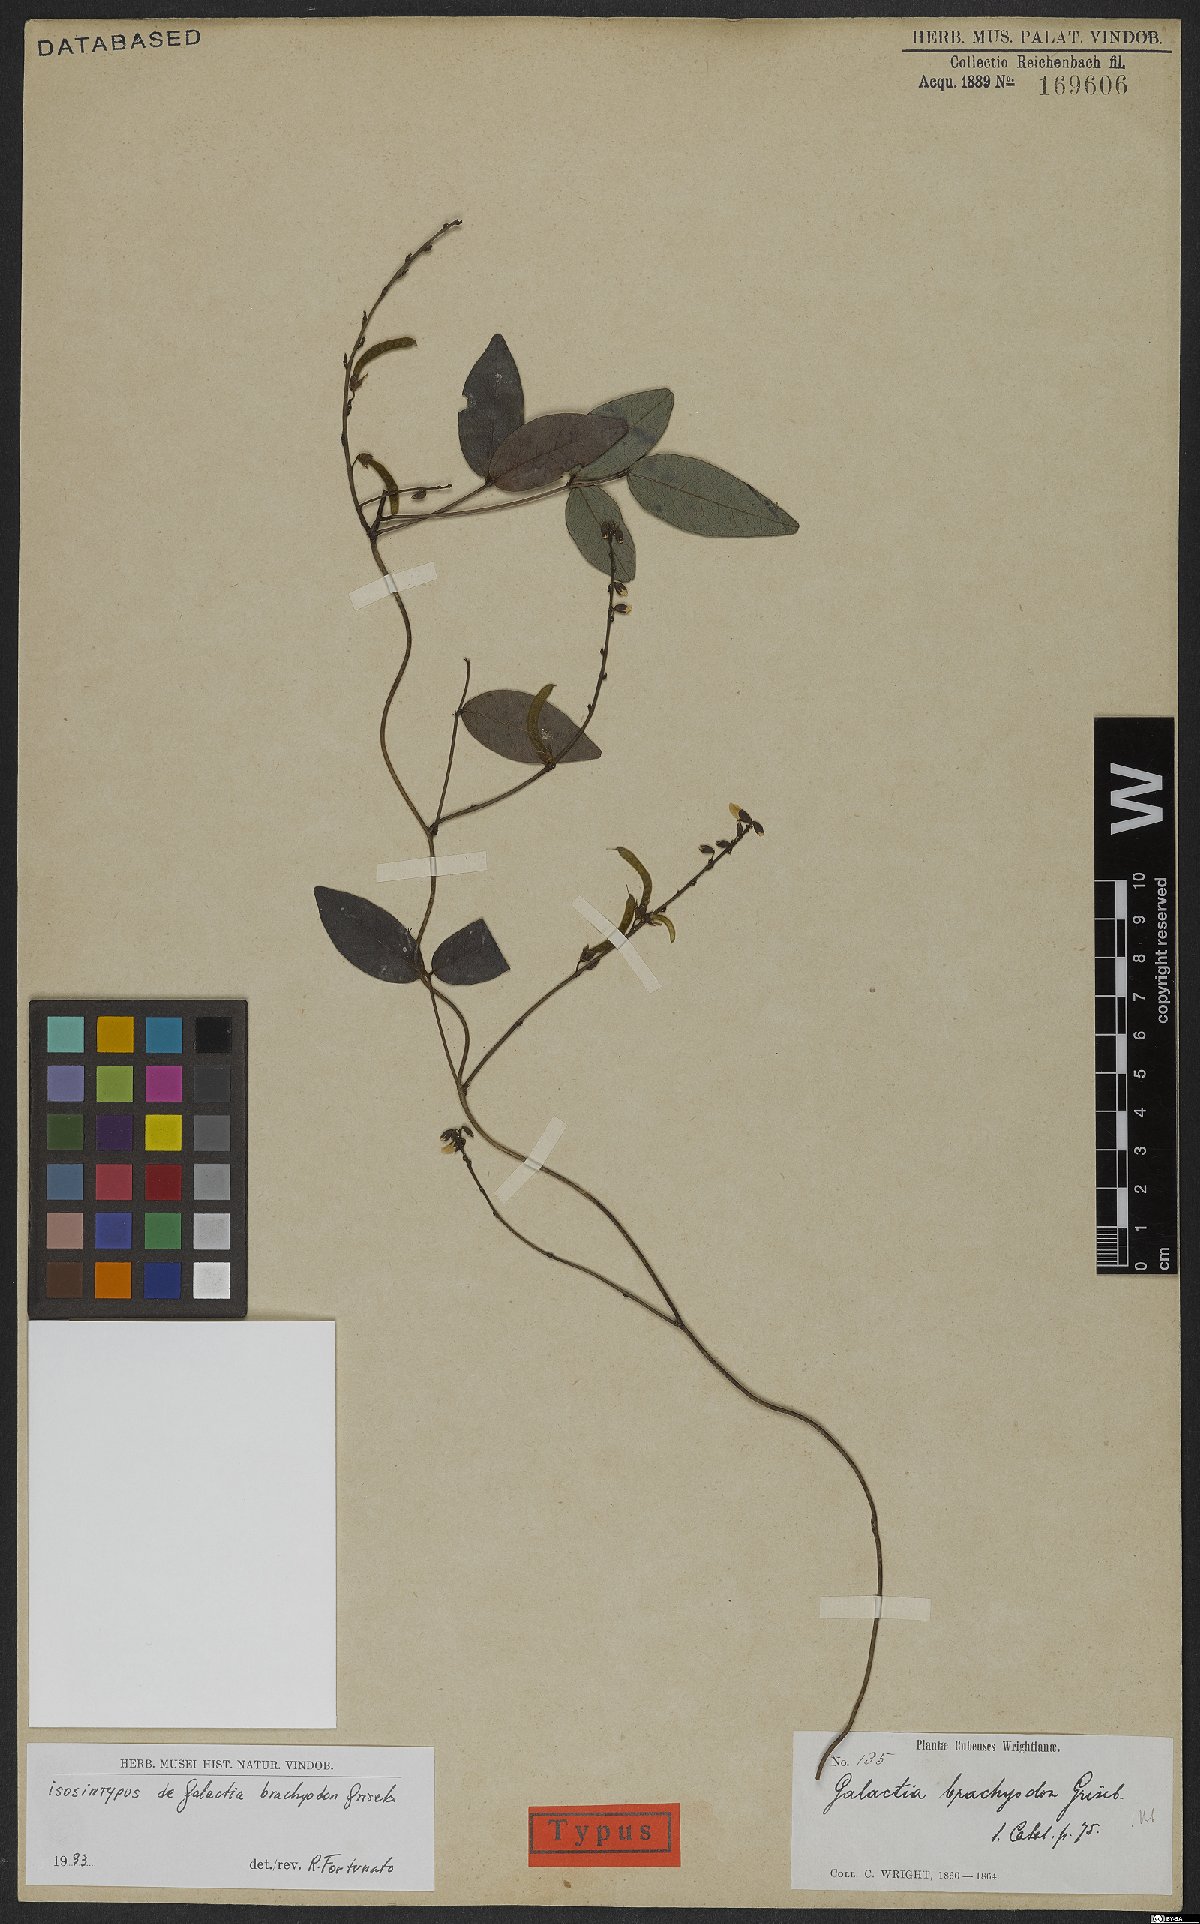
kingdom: Plantae
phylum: Tracheophyta
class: Magnoliopsida
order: Fabales
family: Fabaceae
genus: Galactia
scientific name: Galactia brachyodon
